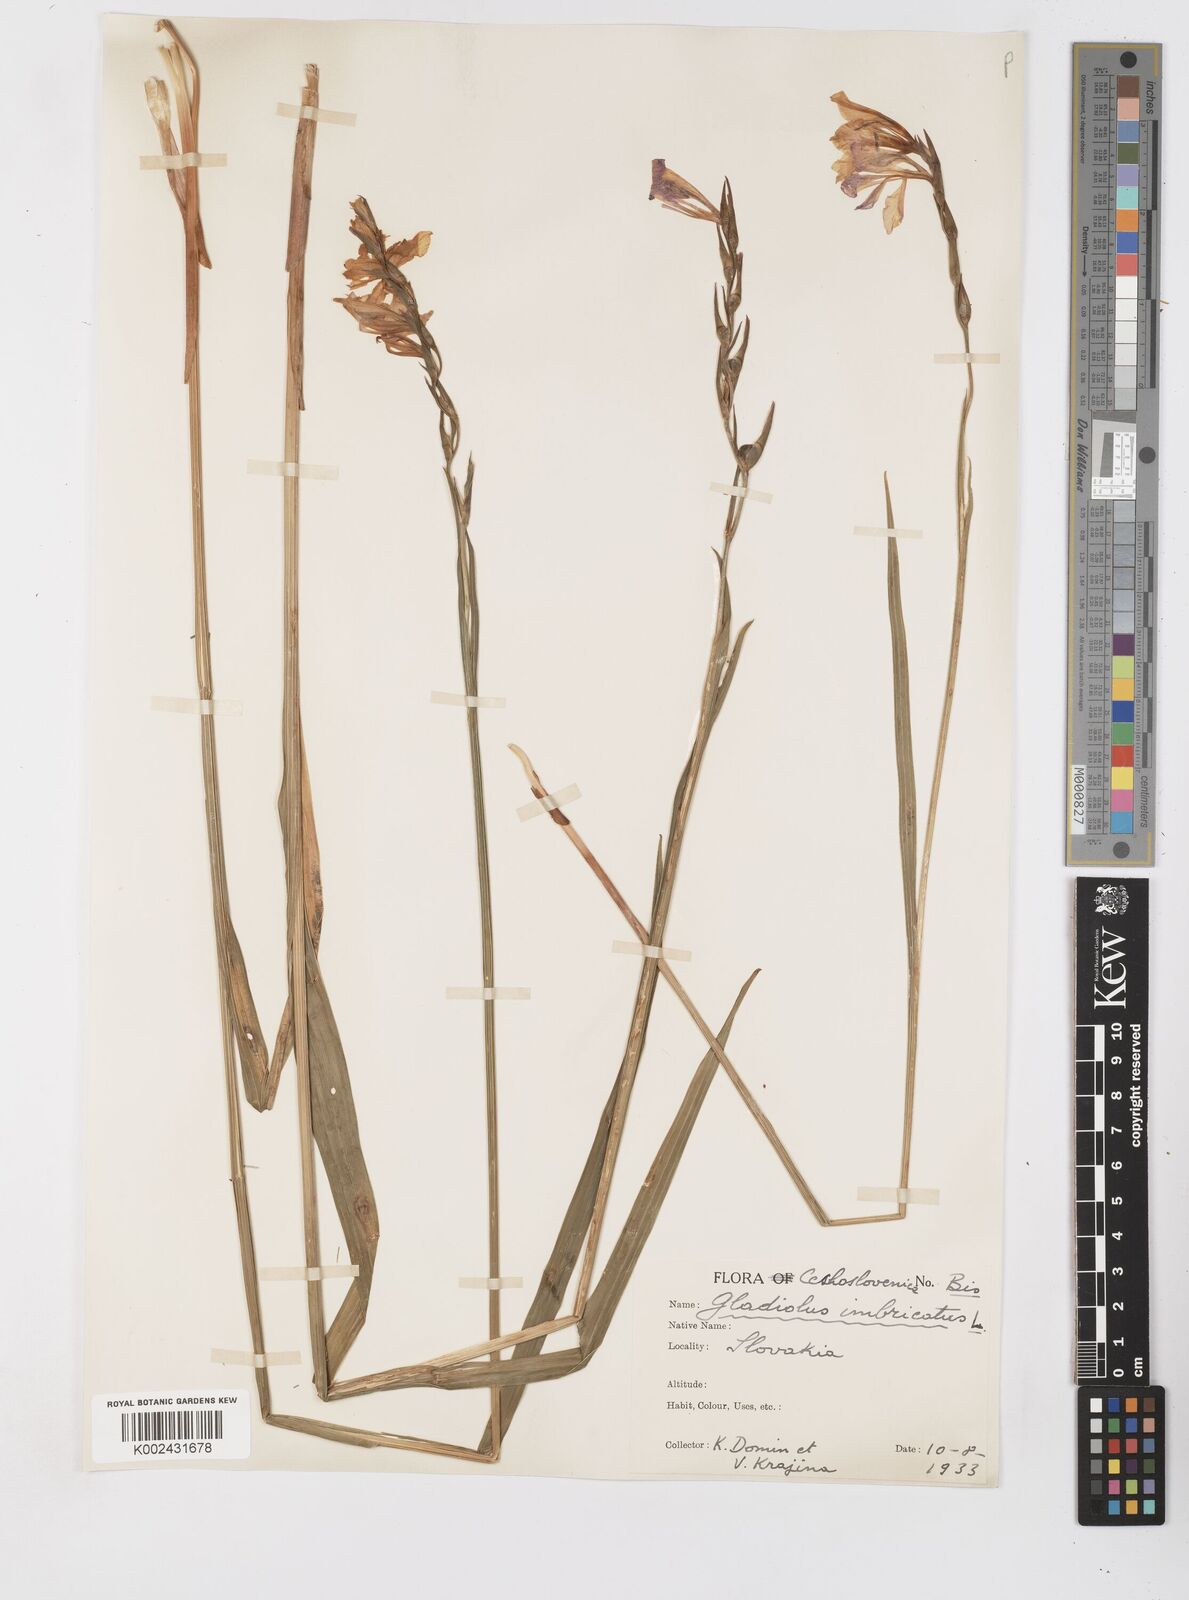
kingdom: Plantae
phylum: Tracheophyta
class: Liliopsida
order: Asparagales
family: Iridaceae
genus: Gladiolus
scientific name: Gladiolus imbricatus
